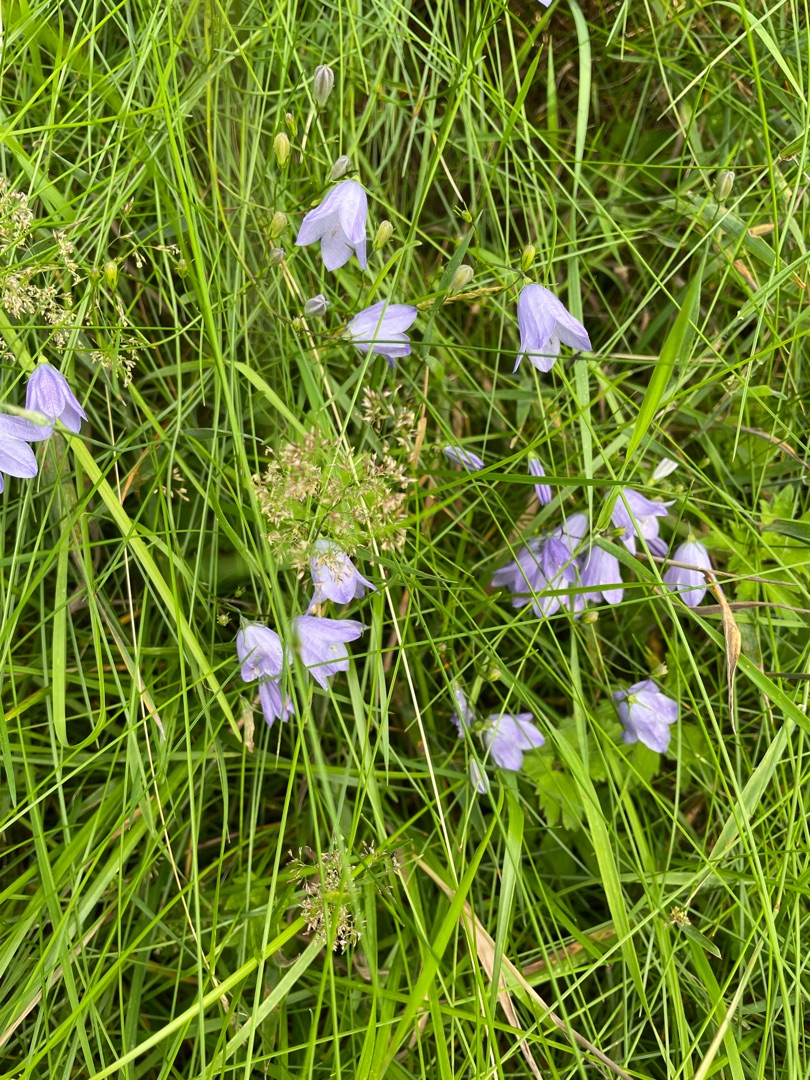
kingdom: Plantae
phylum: Tracheophyta
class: Magnoliopsida
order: Asterales
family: Campanulaceae
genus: Campanula
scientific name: Campanula rotundifolia
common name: Liden klokke
